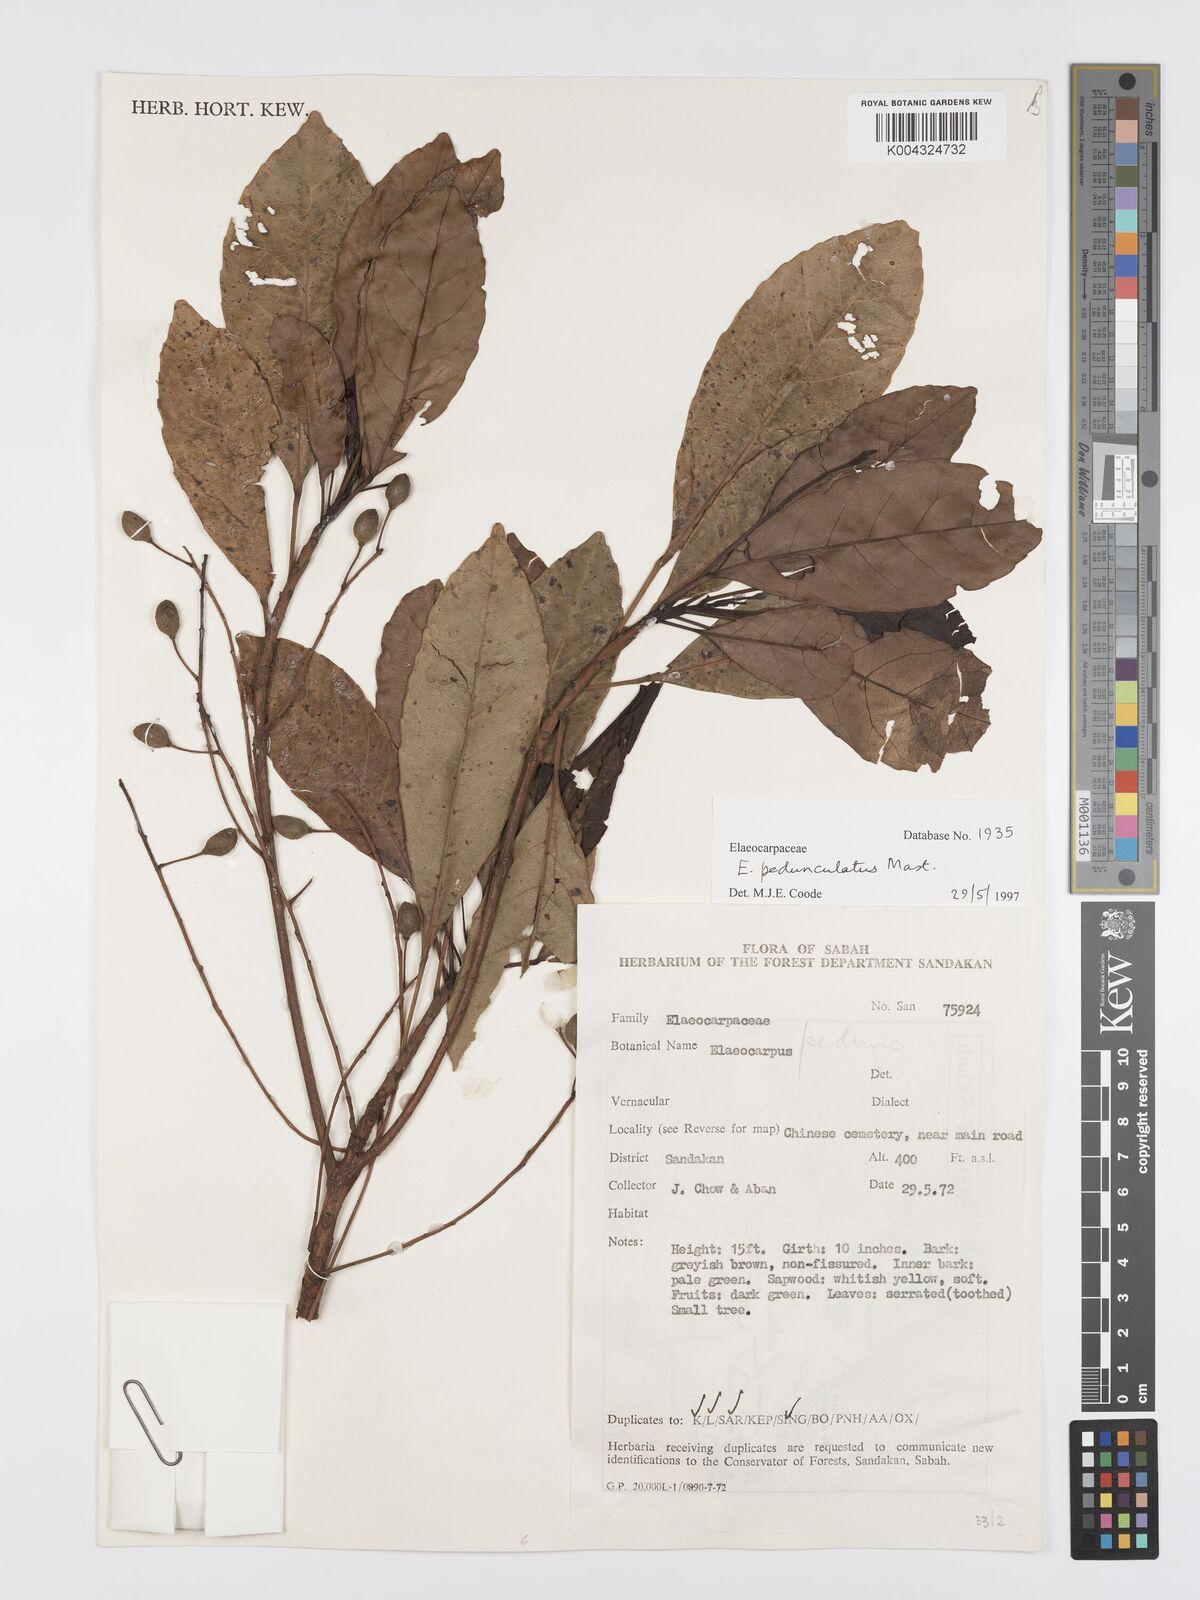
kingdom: Plantae
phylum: Tracheophyta
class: Magnoliopsida
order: Oxalidales
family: Elaeocarpaceae
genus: Elaeocarpus
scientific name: Elaeocarpus pedunculatus
